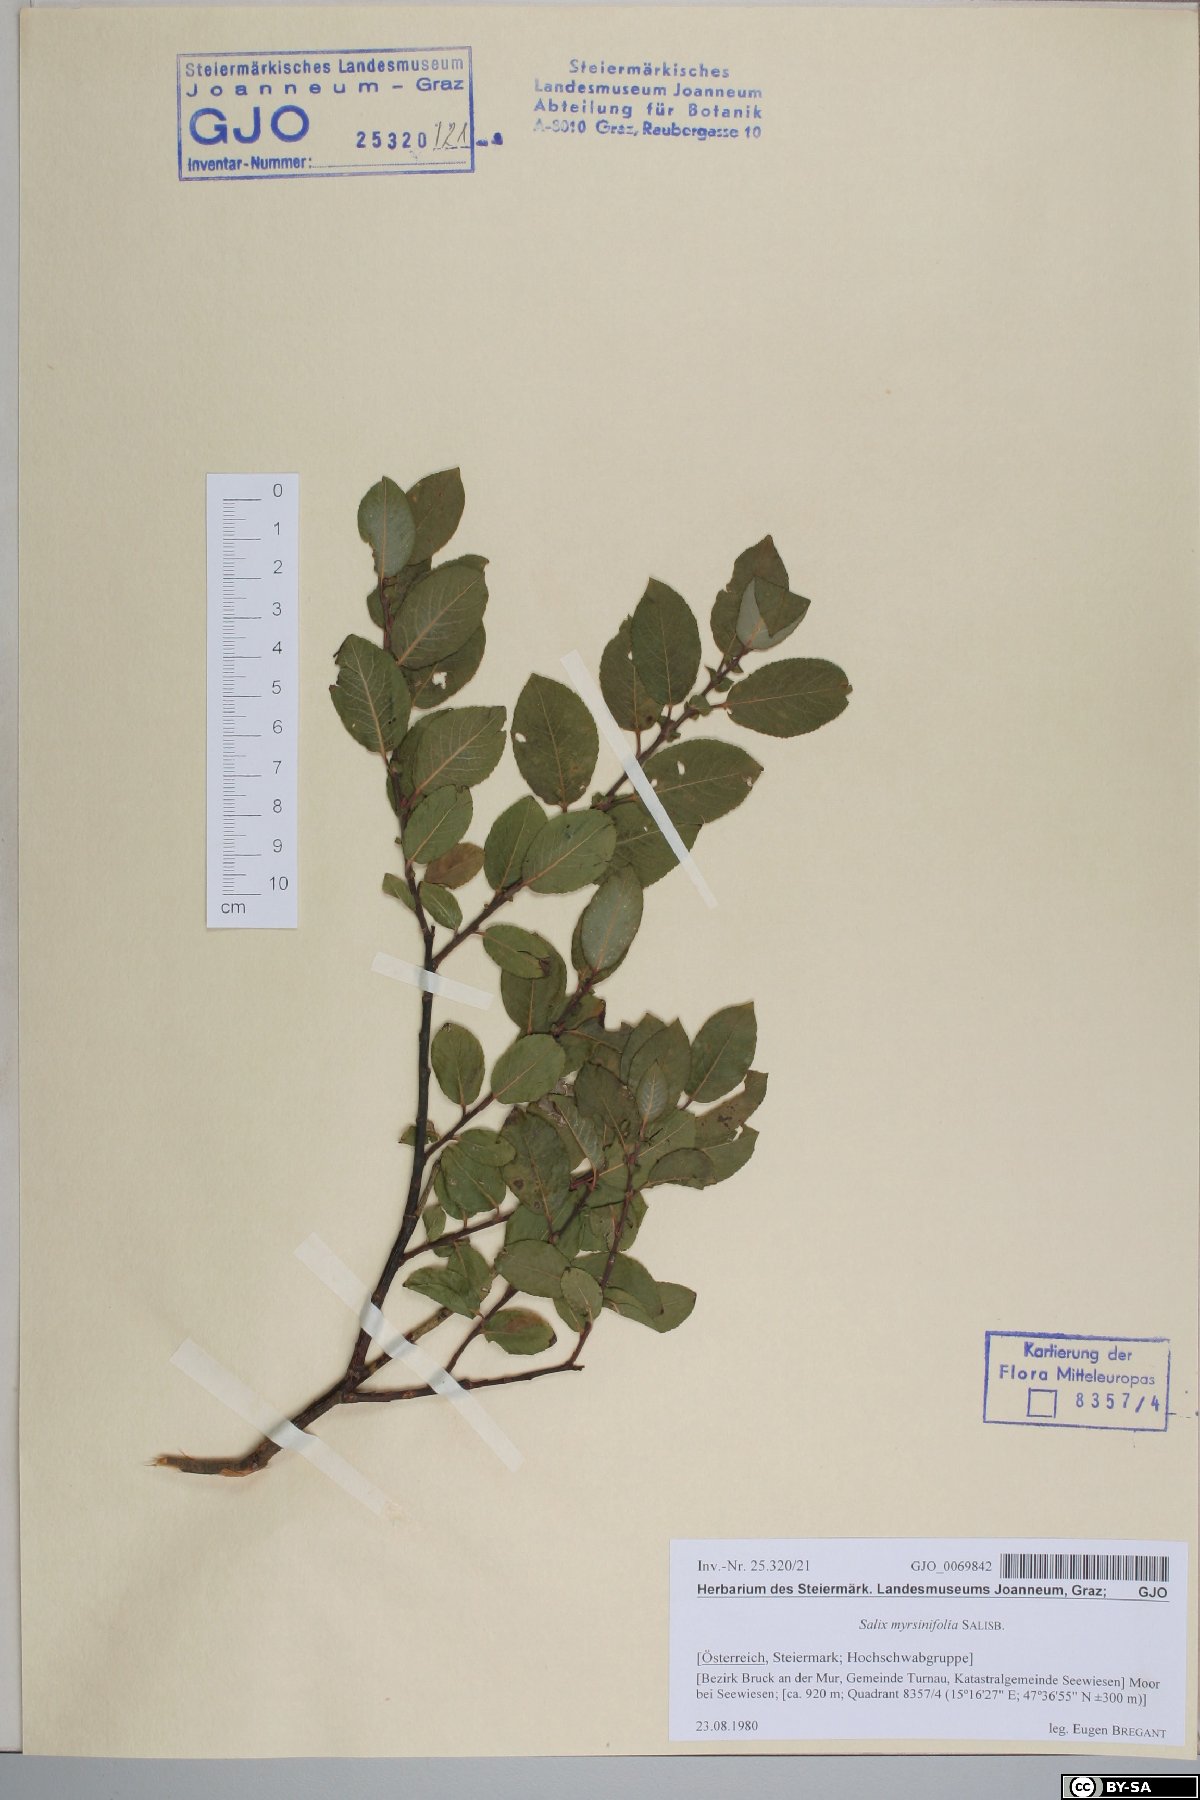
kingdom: Plantae
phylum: Tracheophyta
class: Magnoliopsida
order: Malpighiales
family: Salicaceae
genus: Salix
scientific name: Salix myrsinifolia
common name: Dark-leaved willow
